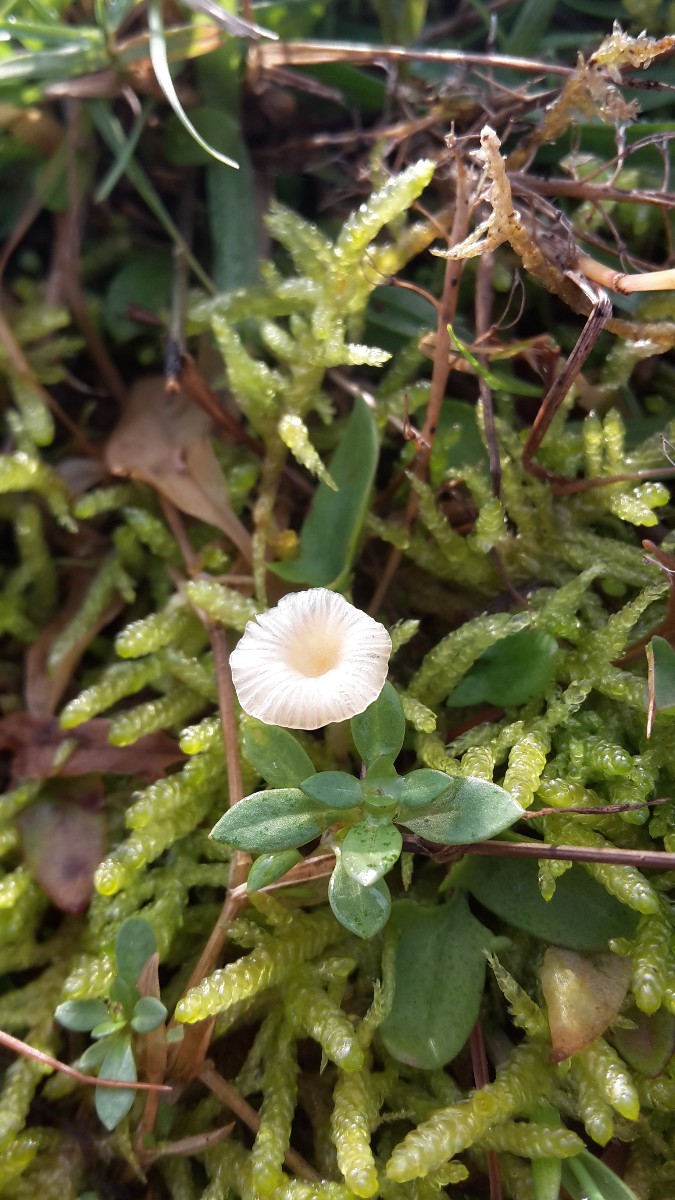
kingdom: Fungi
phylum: Basidiomycota
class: Agaricomycetes
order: Hymenochaetales
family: Rickenellaceae
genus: Rickenella
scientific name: Rickenella fibula
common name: orange mosnavlehat
